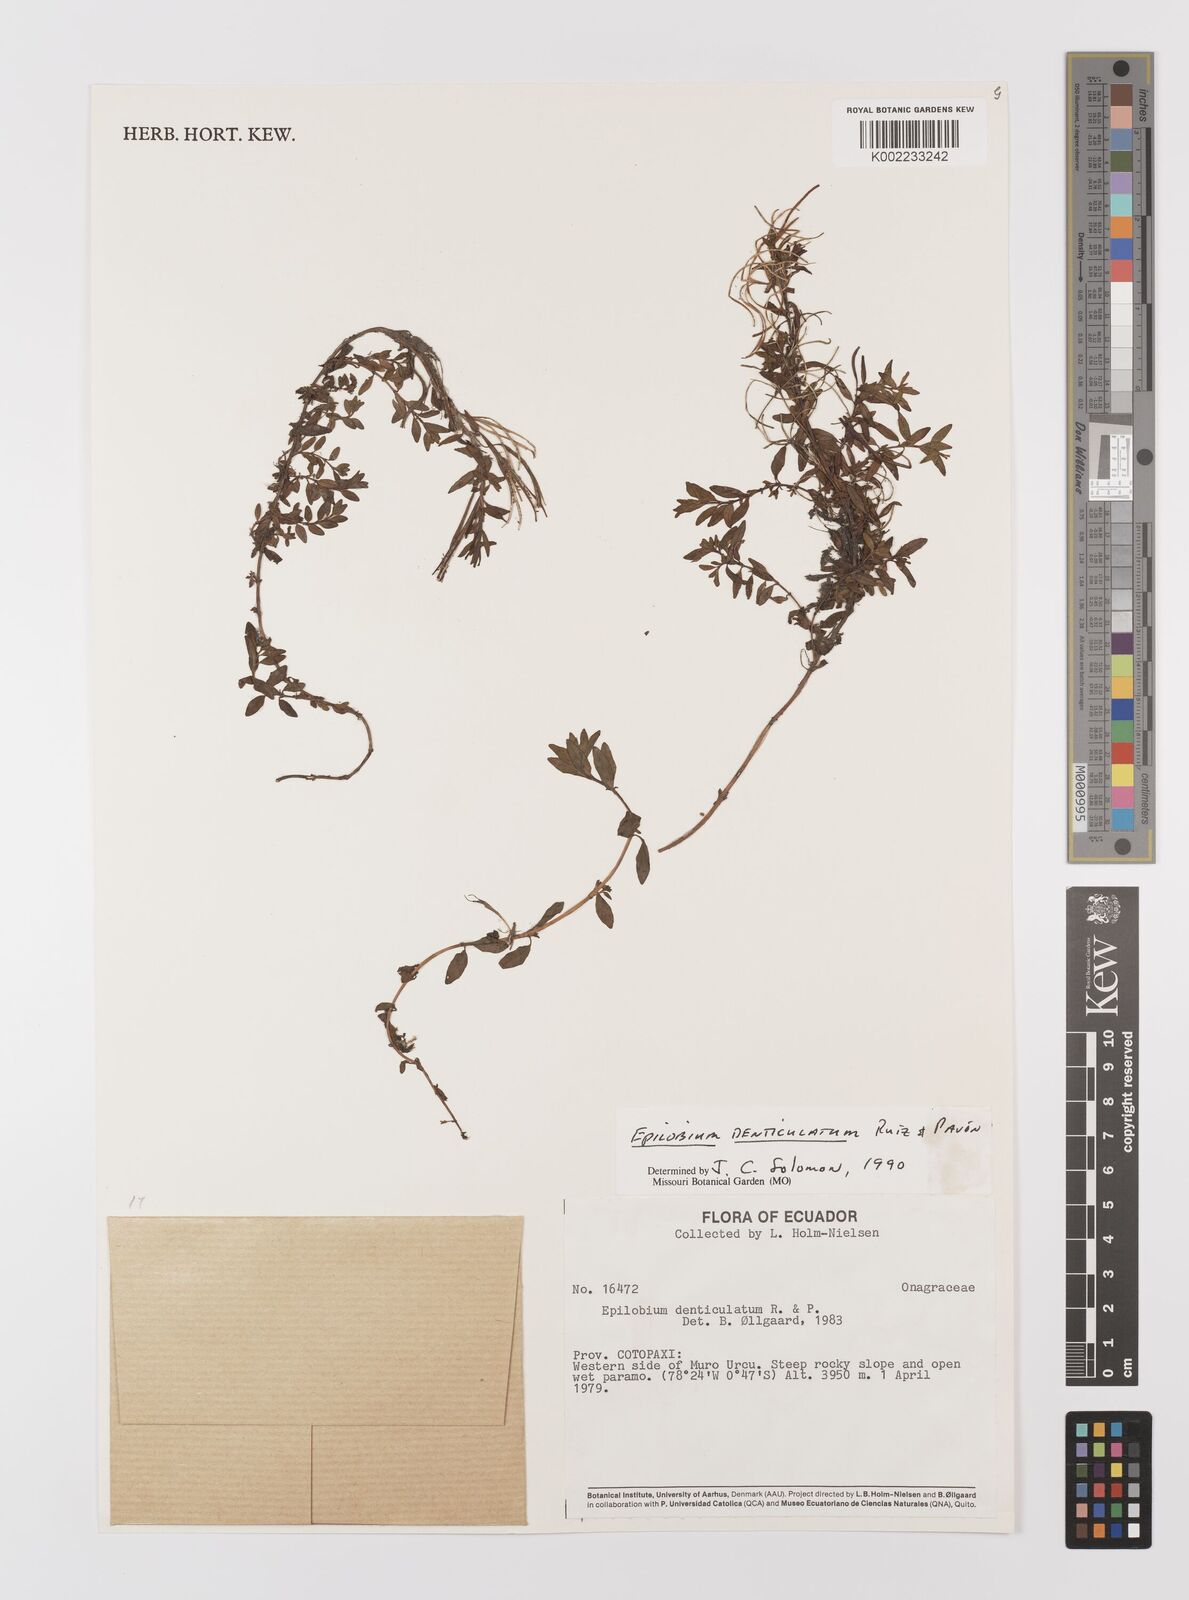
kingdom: Plantae
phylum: Tracheophyta
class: Magnoliopsida
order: Myrtales
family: Onagraceae
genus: Epilobium
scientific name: Epilobium denticulatum
